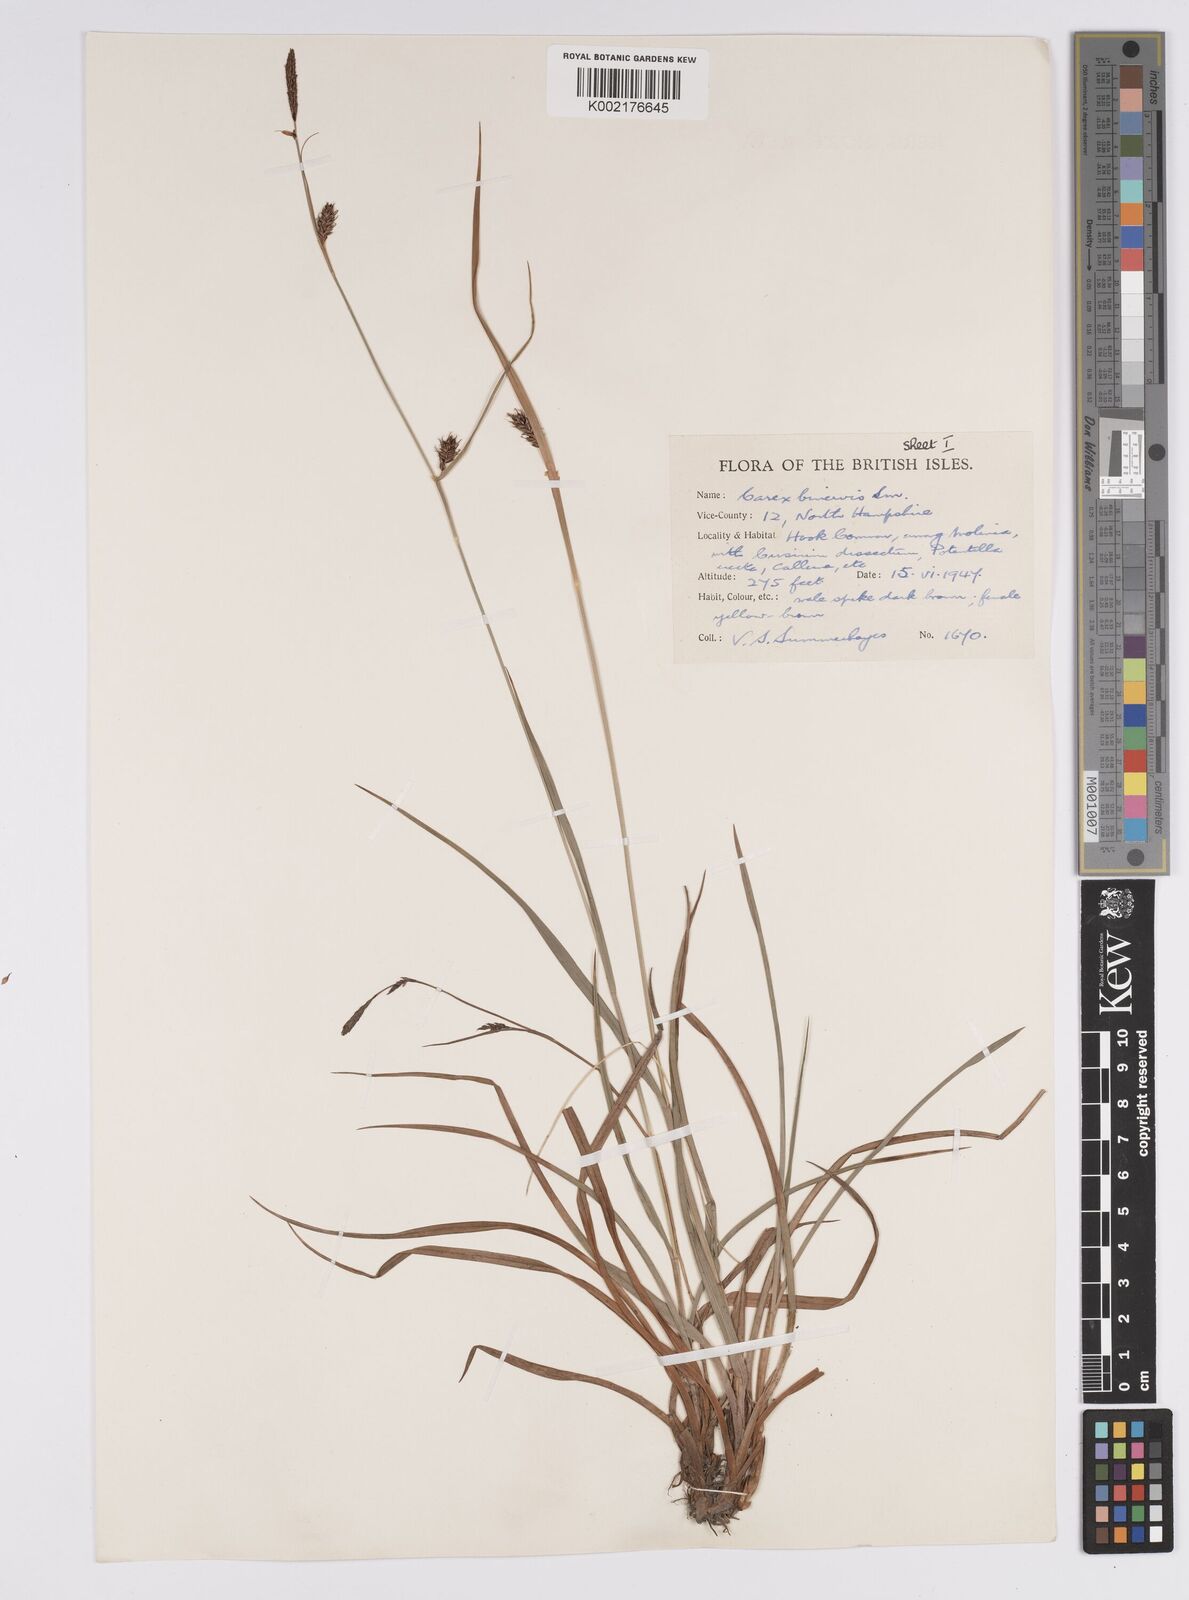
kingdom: Plantae
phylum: Tracheophyta
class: Liliopsida
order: Poales
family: Cyperaceae
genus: Carex
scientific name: Carex binervis
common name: Green-ribbed sedge
